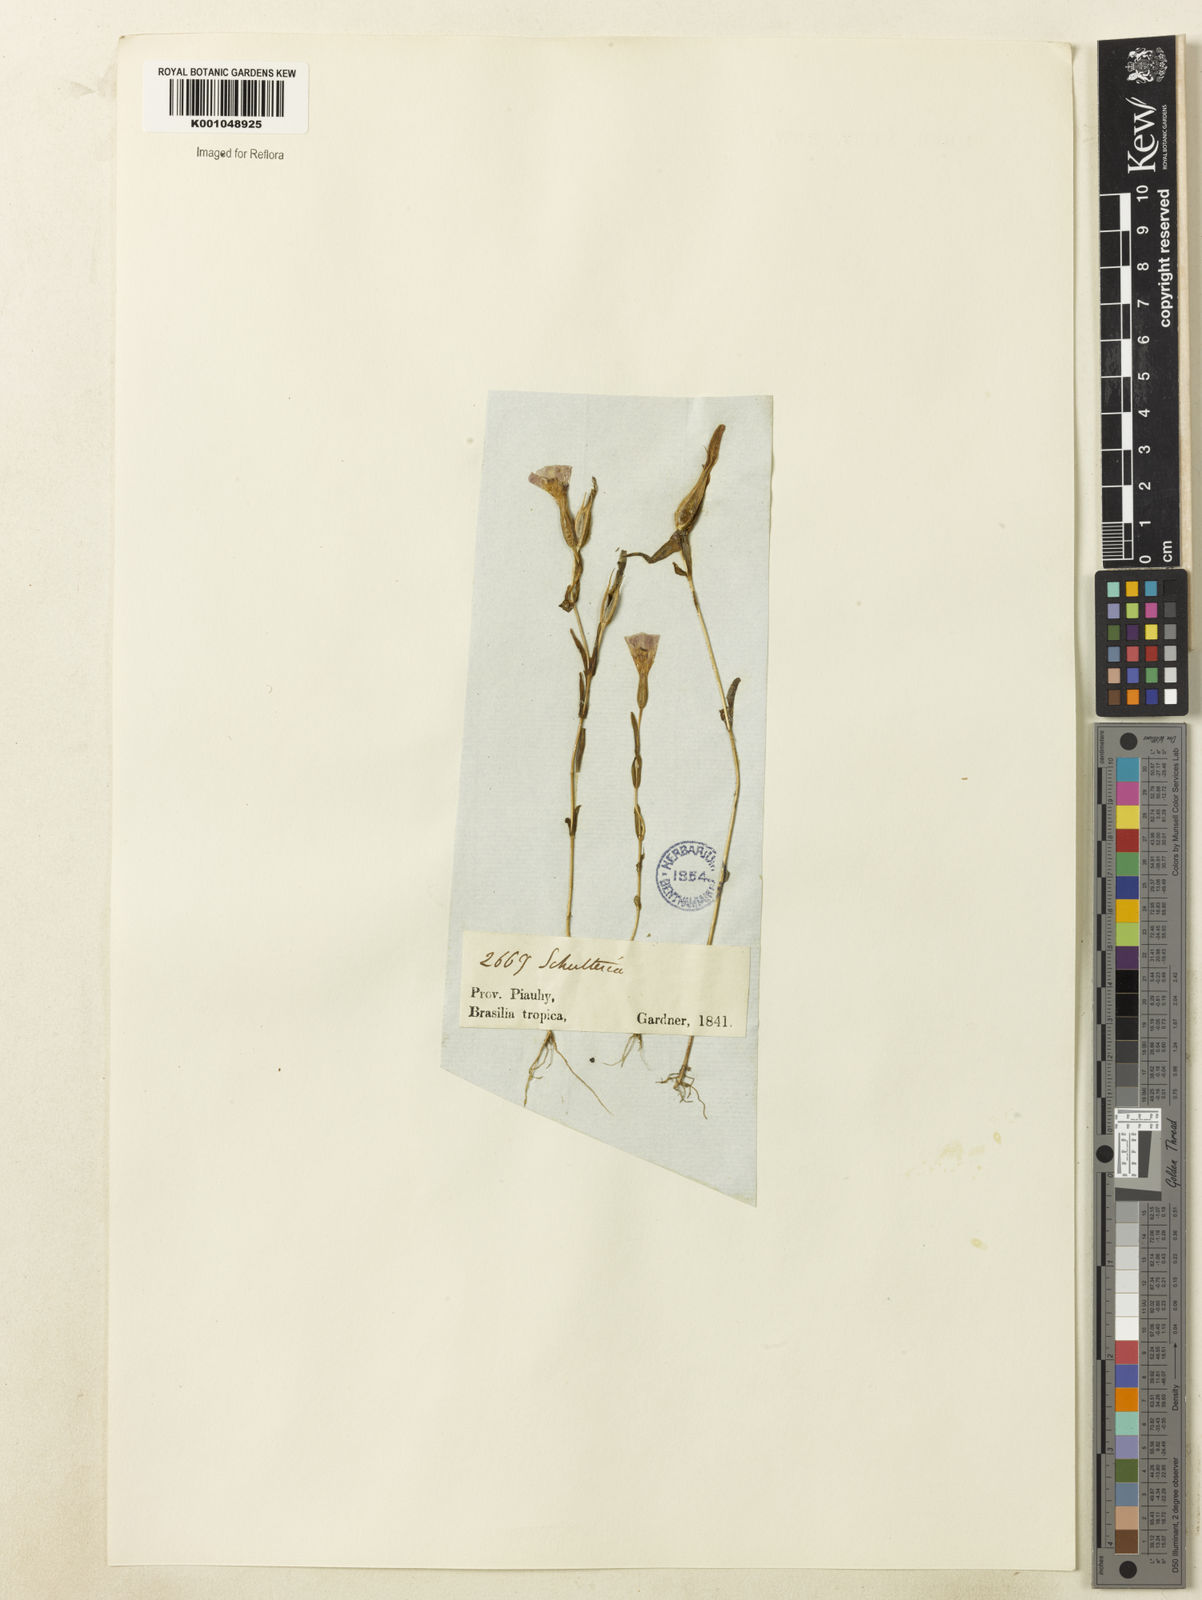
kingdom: Plantae
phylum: Tracheophyta
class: Magnoliopsida
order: Gentianales
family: Gentianaceae
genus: Schultesia
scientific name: Schultesia
